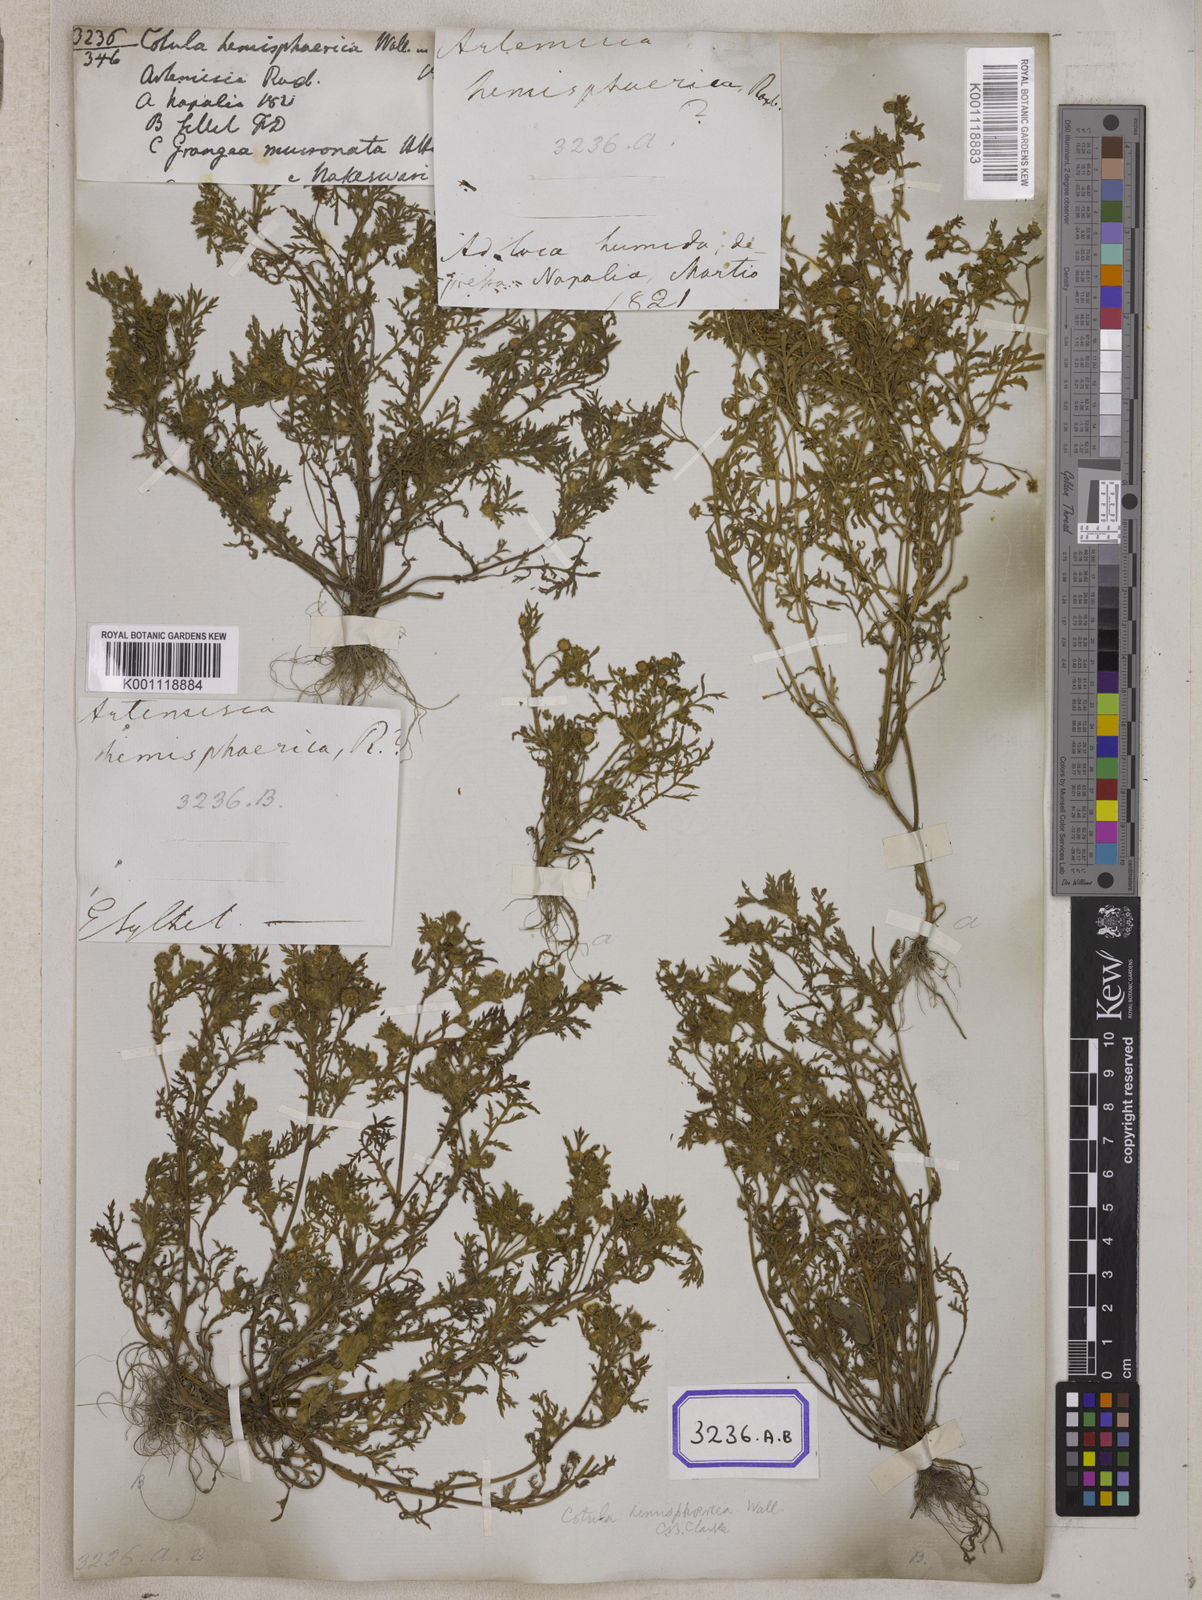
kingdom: Plantae
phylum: Tracheophyta
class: Magnoliopsida
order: Asterales
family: Asteraceae
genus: Cotula
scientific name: Cotula
